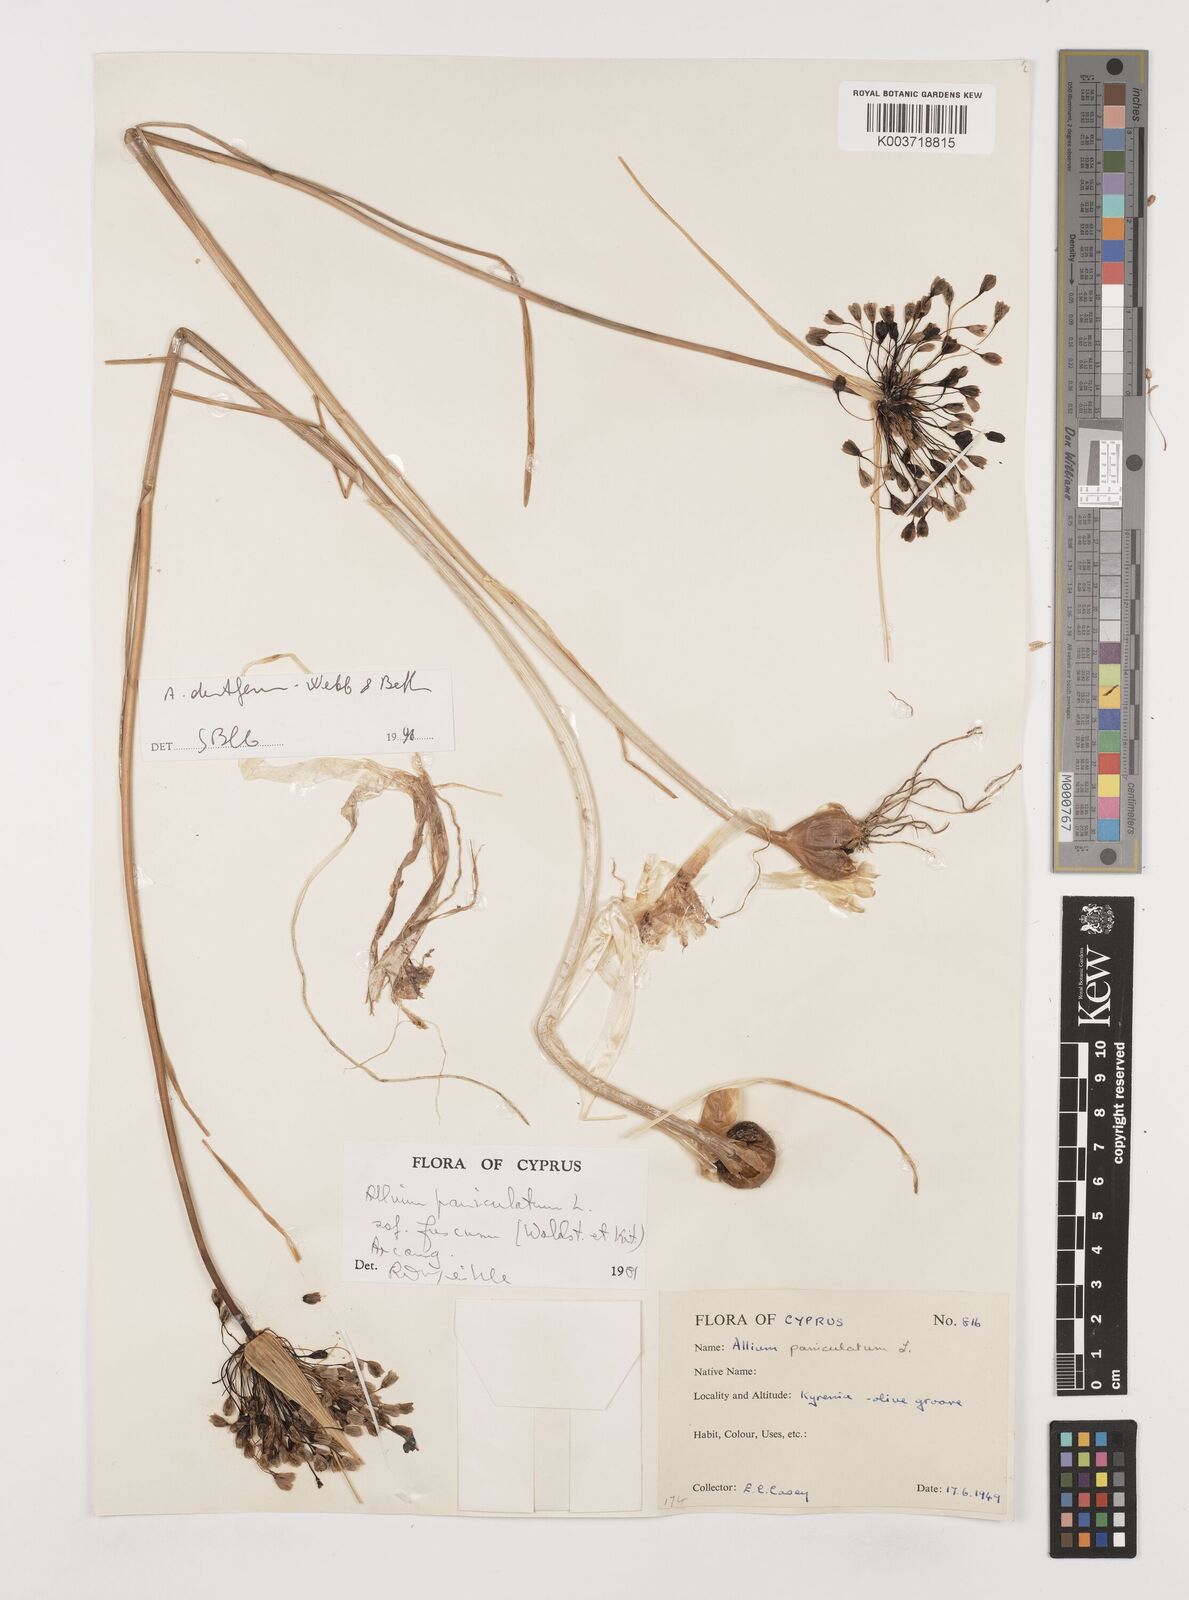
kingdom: Plantae
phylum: Tracheophyta
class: Liliopsida
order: Asparagales
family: Amaryllidaceae
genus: Allium
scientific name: Allium paniculatum
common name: Pale garlic
